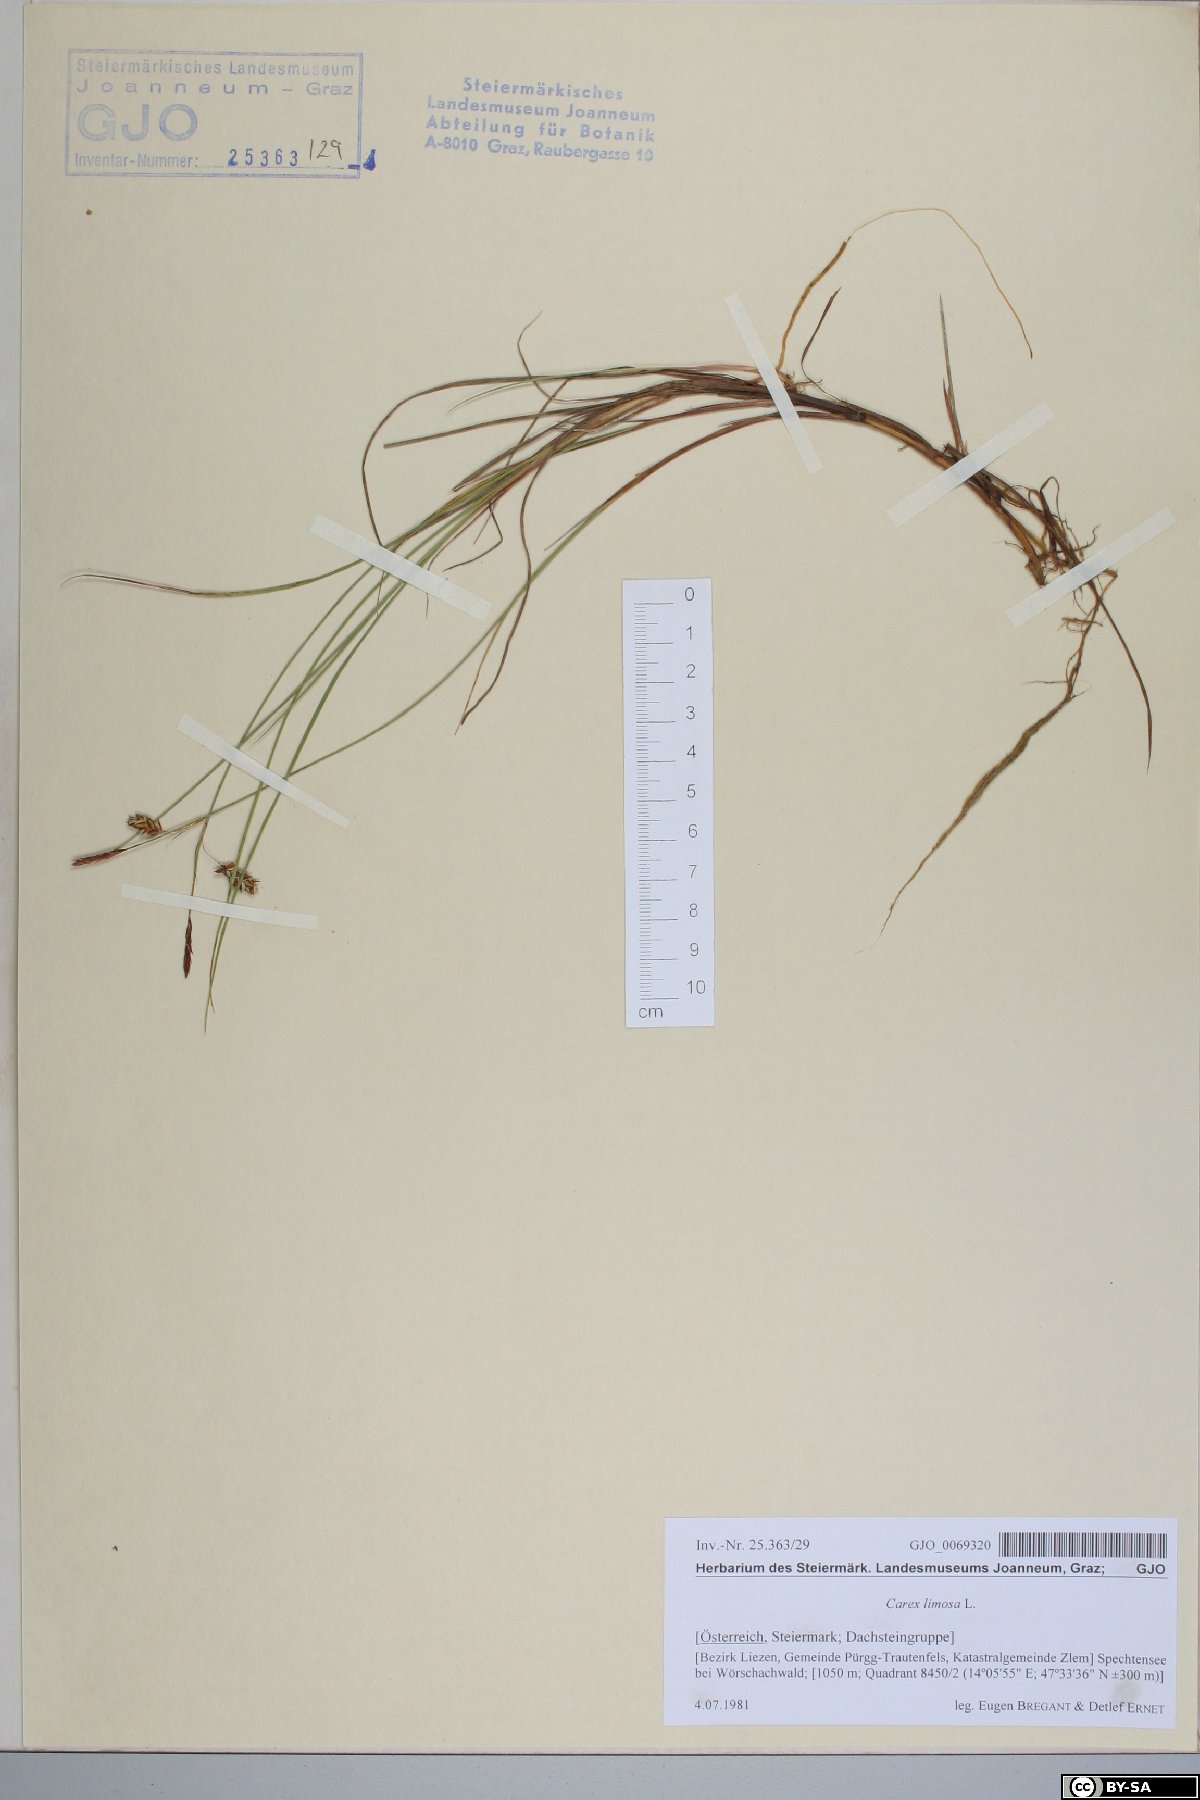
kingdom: Plantae
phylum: Tracheophyta
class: Liliopsida
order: Poales
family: Cyperaceae
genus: Carex
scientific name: Carex limosa
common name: Bog sedge
